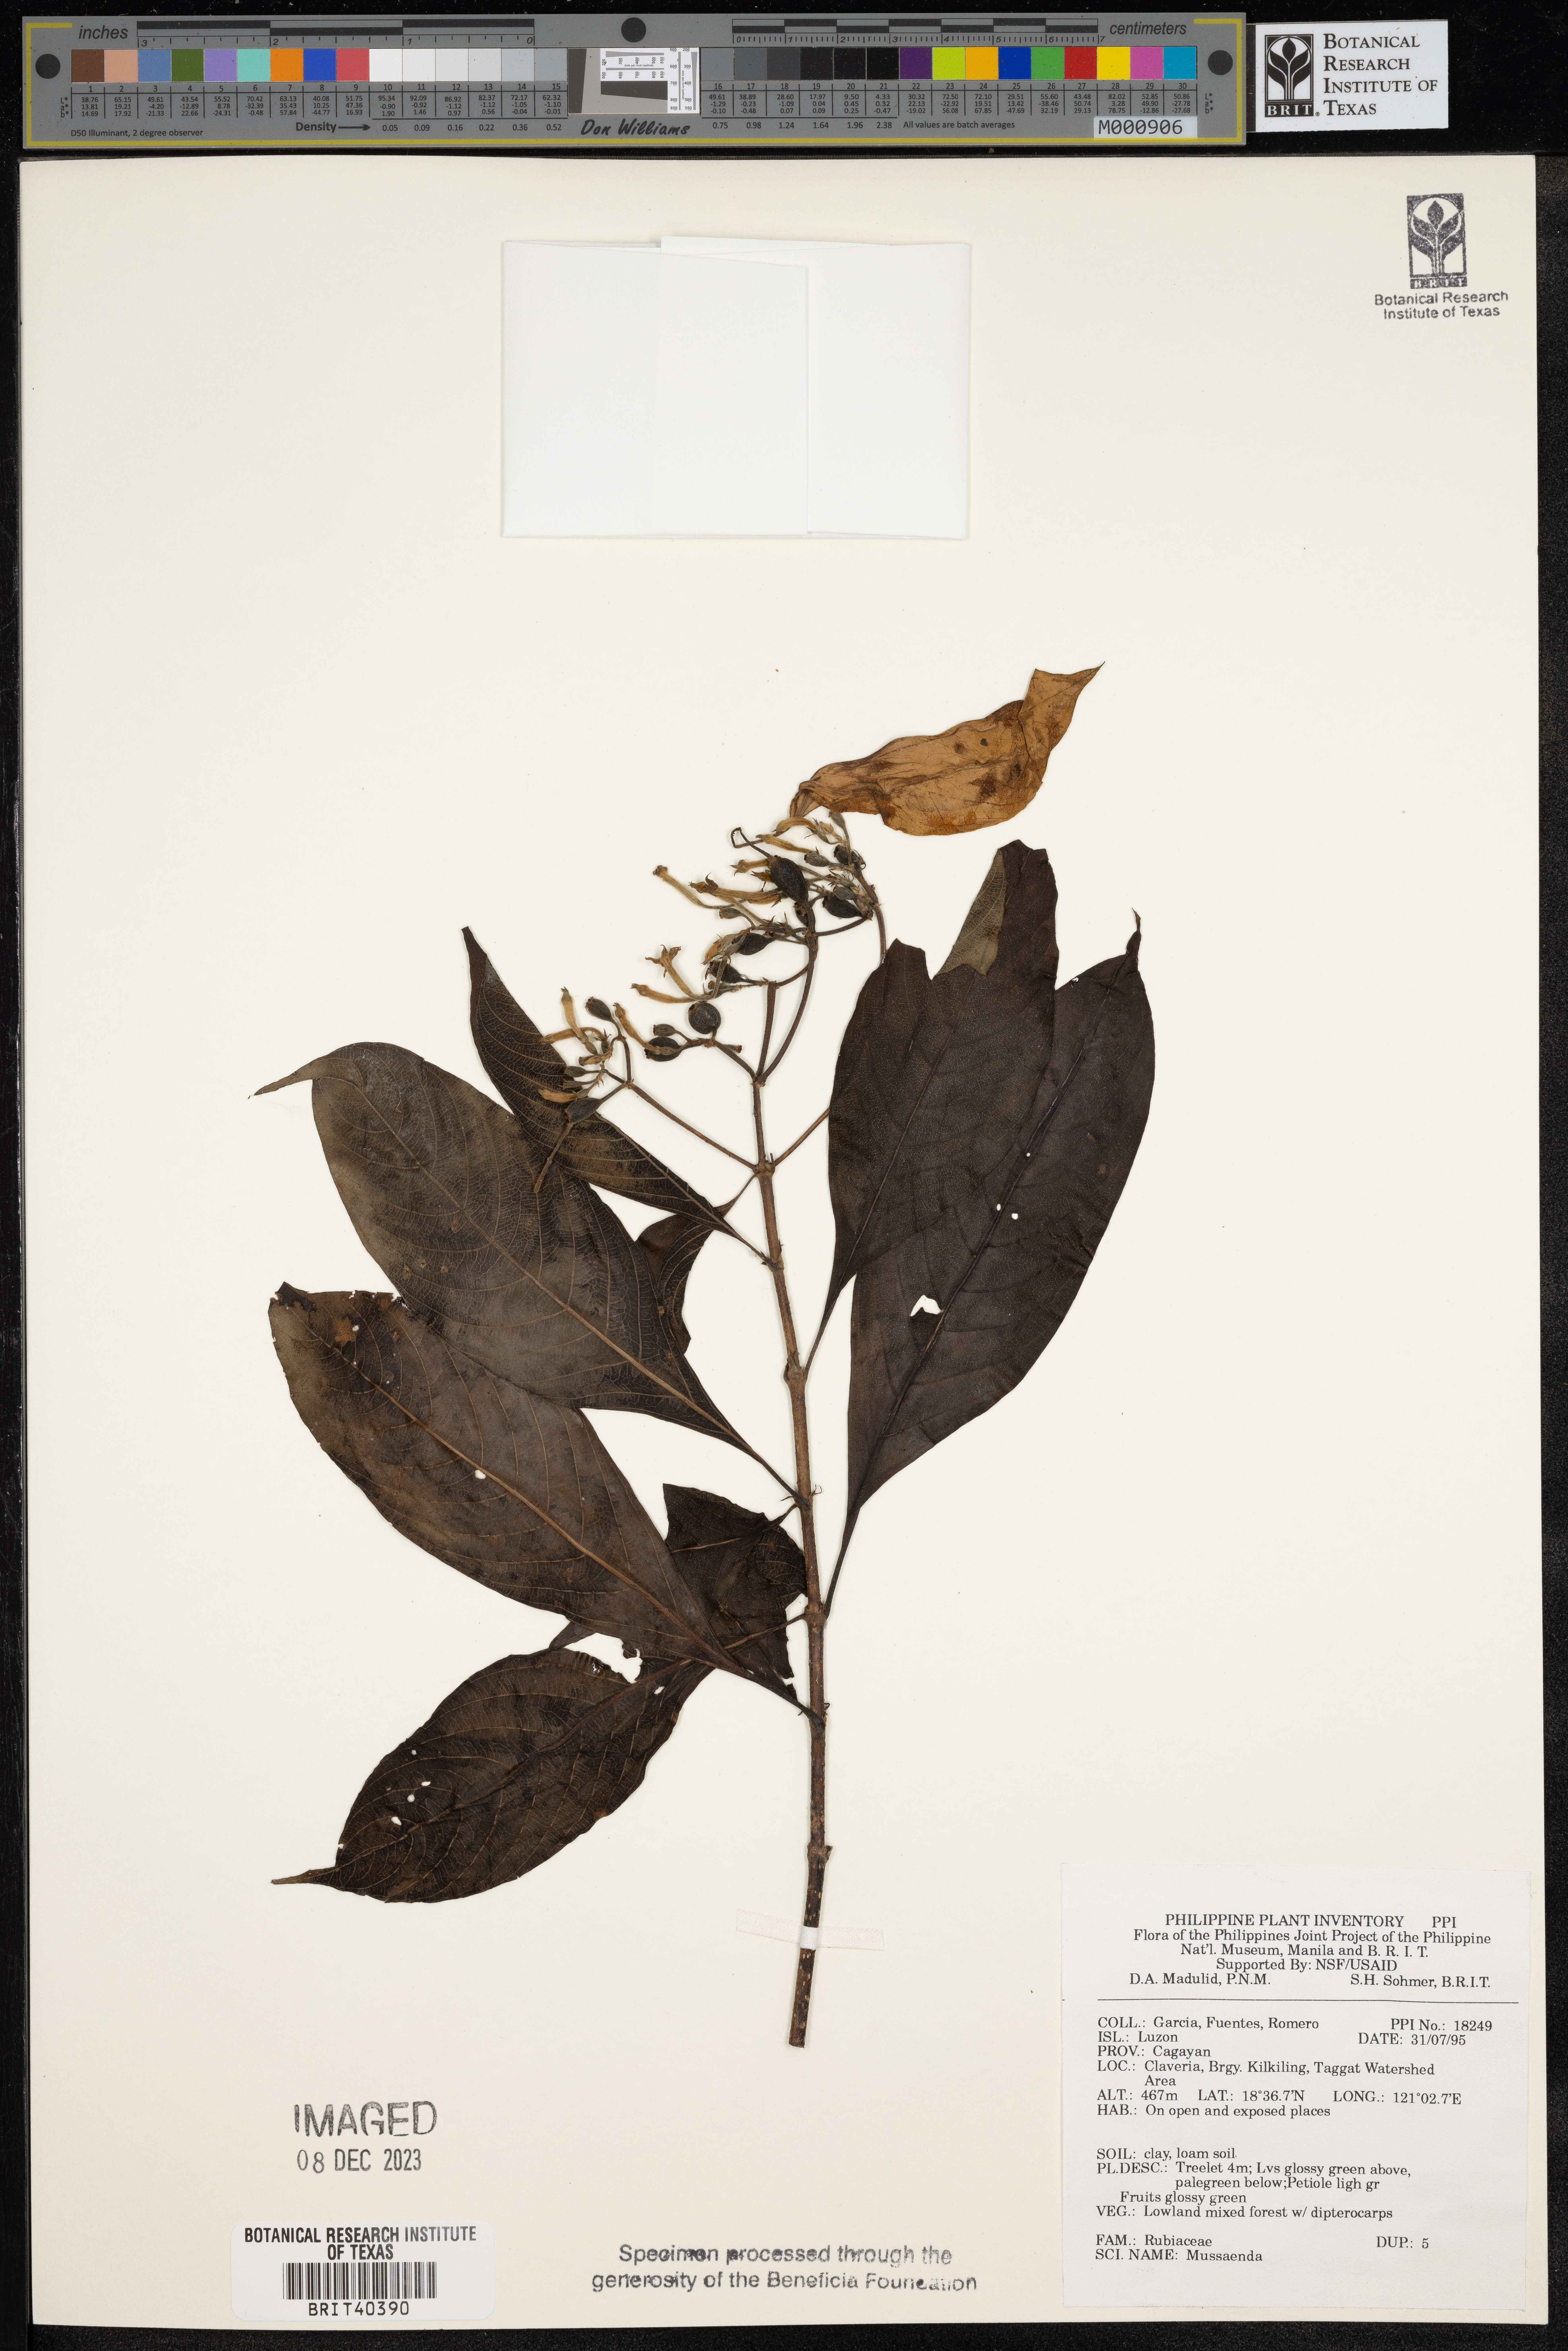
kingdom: Plantae
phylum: Tracheophyta
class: Magnoliopsida
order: Gentianales
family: Rubiaceae
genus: Mussaenda
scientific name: Mussaenda
